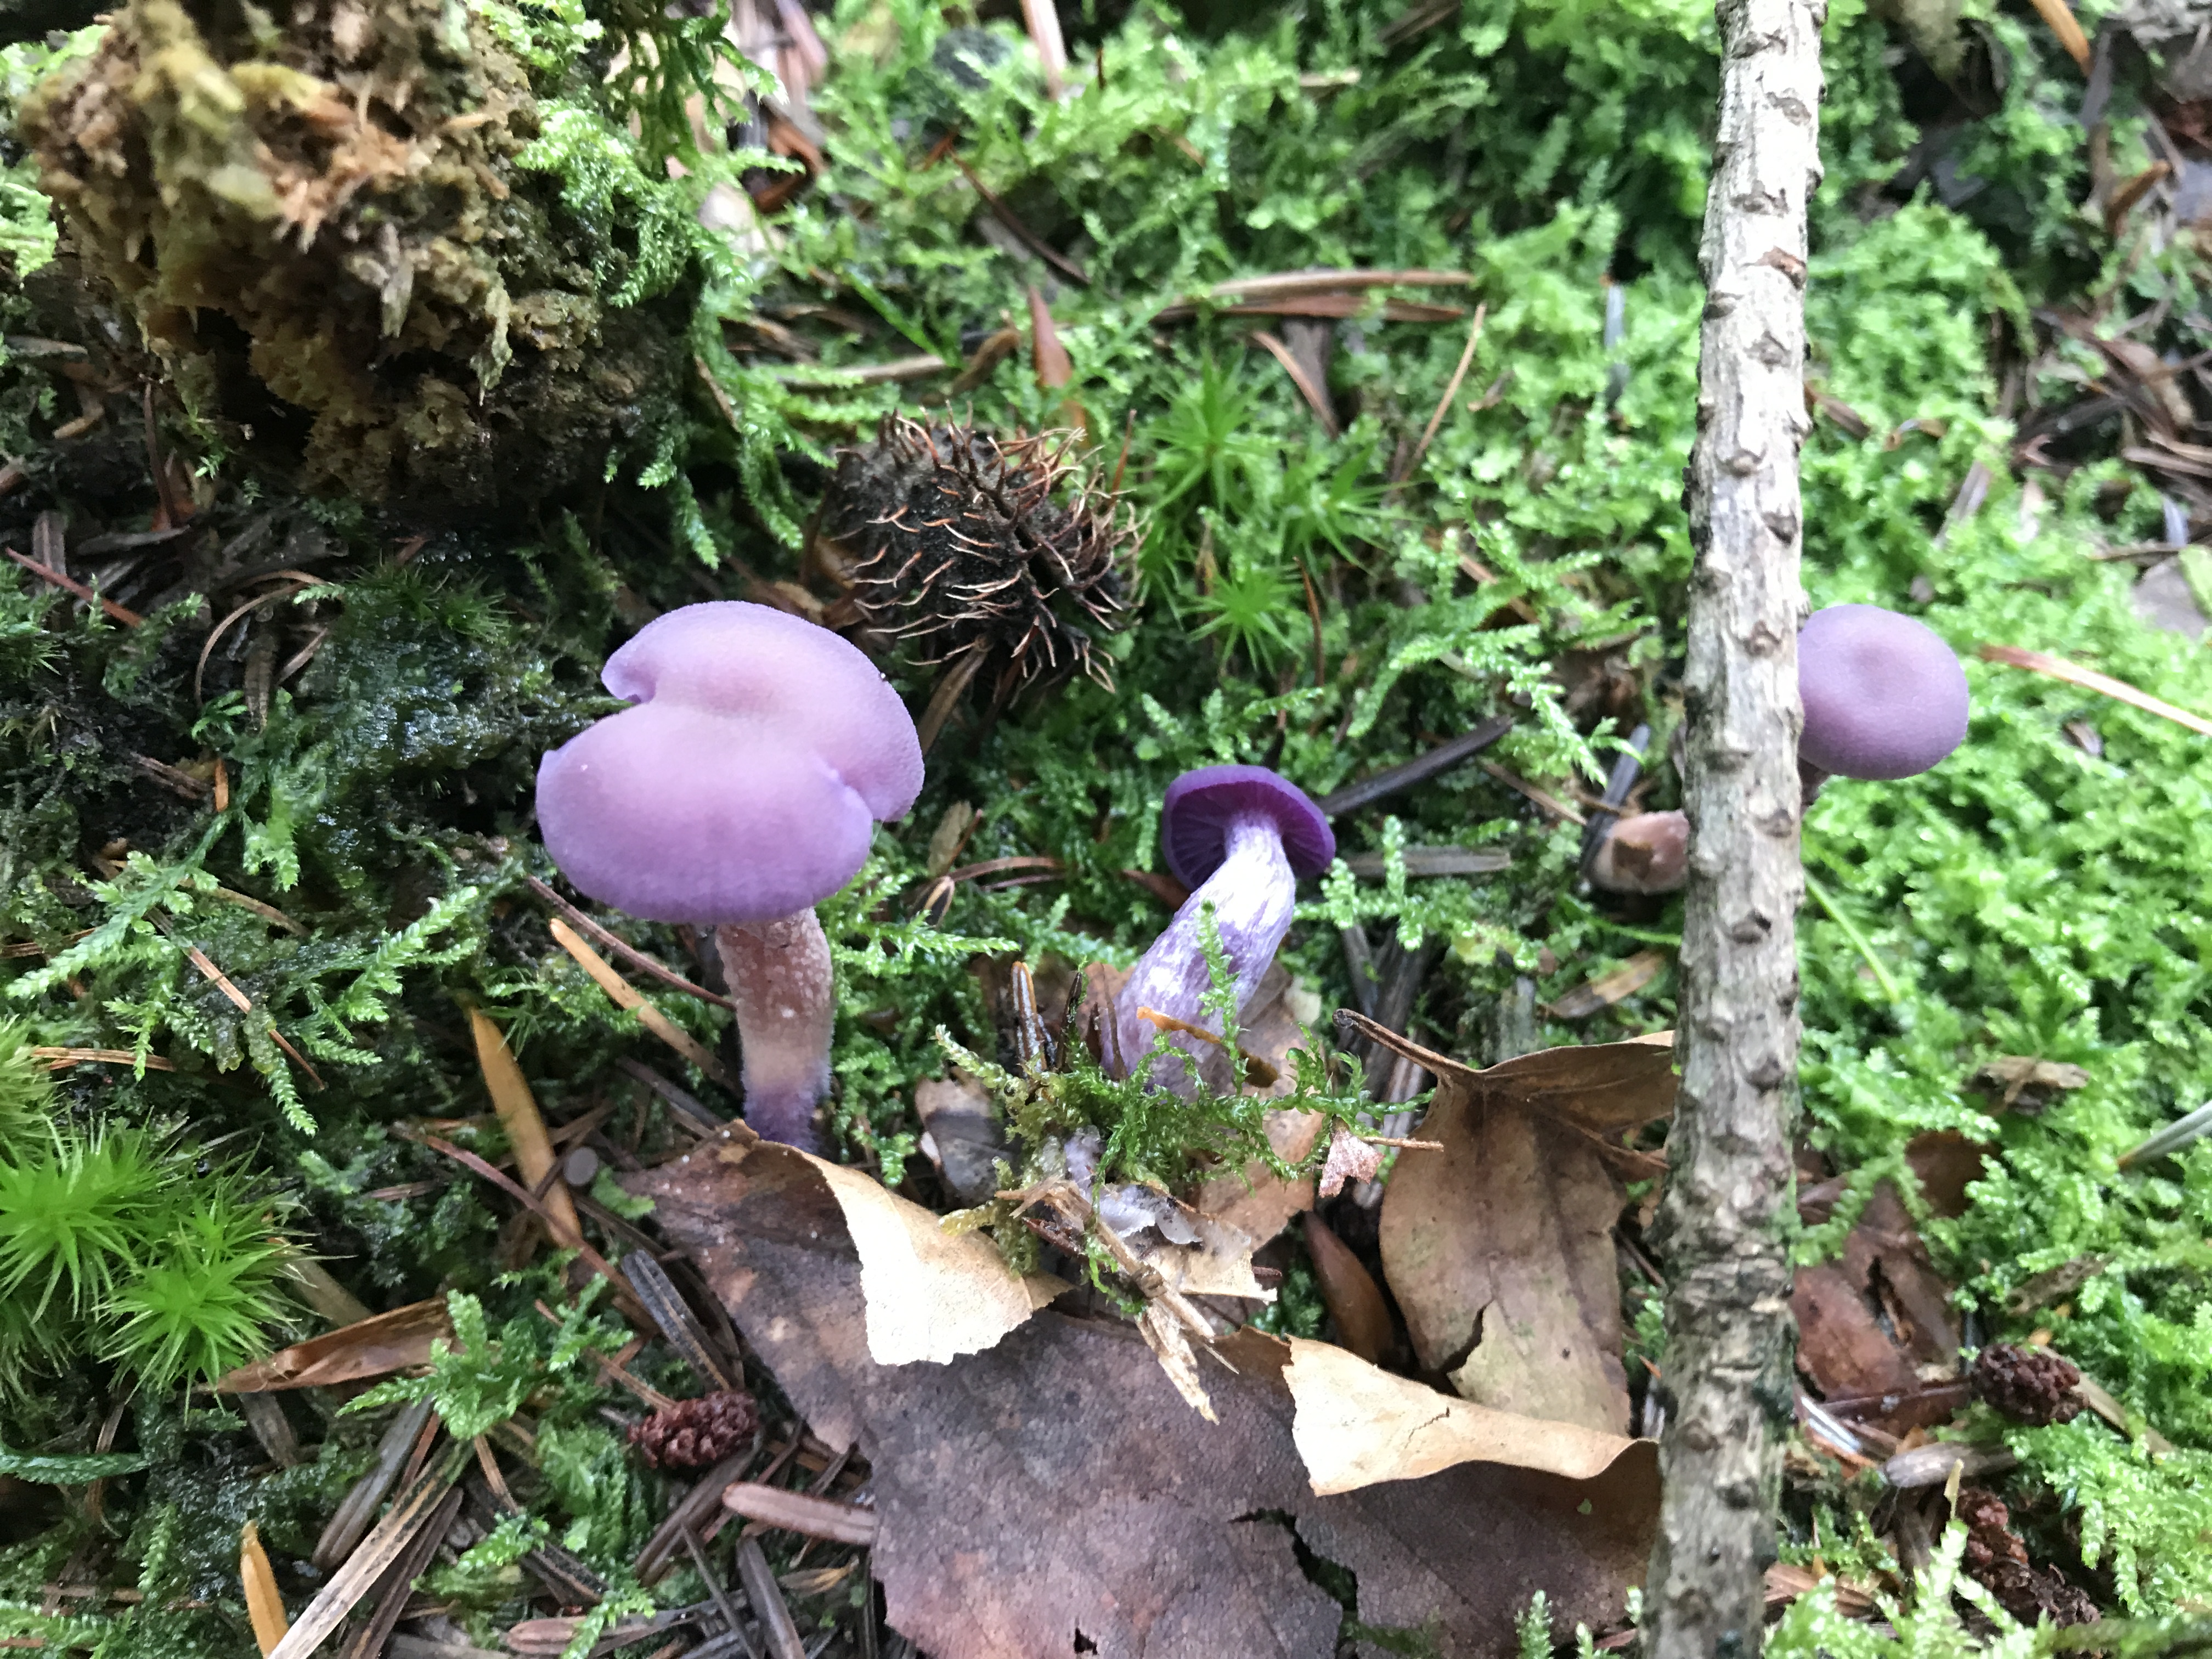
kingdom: Fungi
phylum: Basidiomycota
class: Agaricomycetes
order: Agaricales
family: Hydnangiaceae
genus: Laccaria
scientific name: Laccaria amethystina
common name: violet ametysthat
